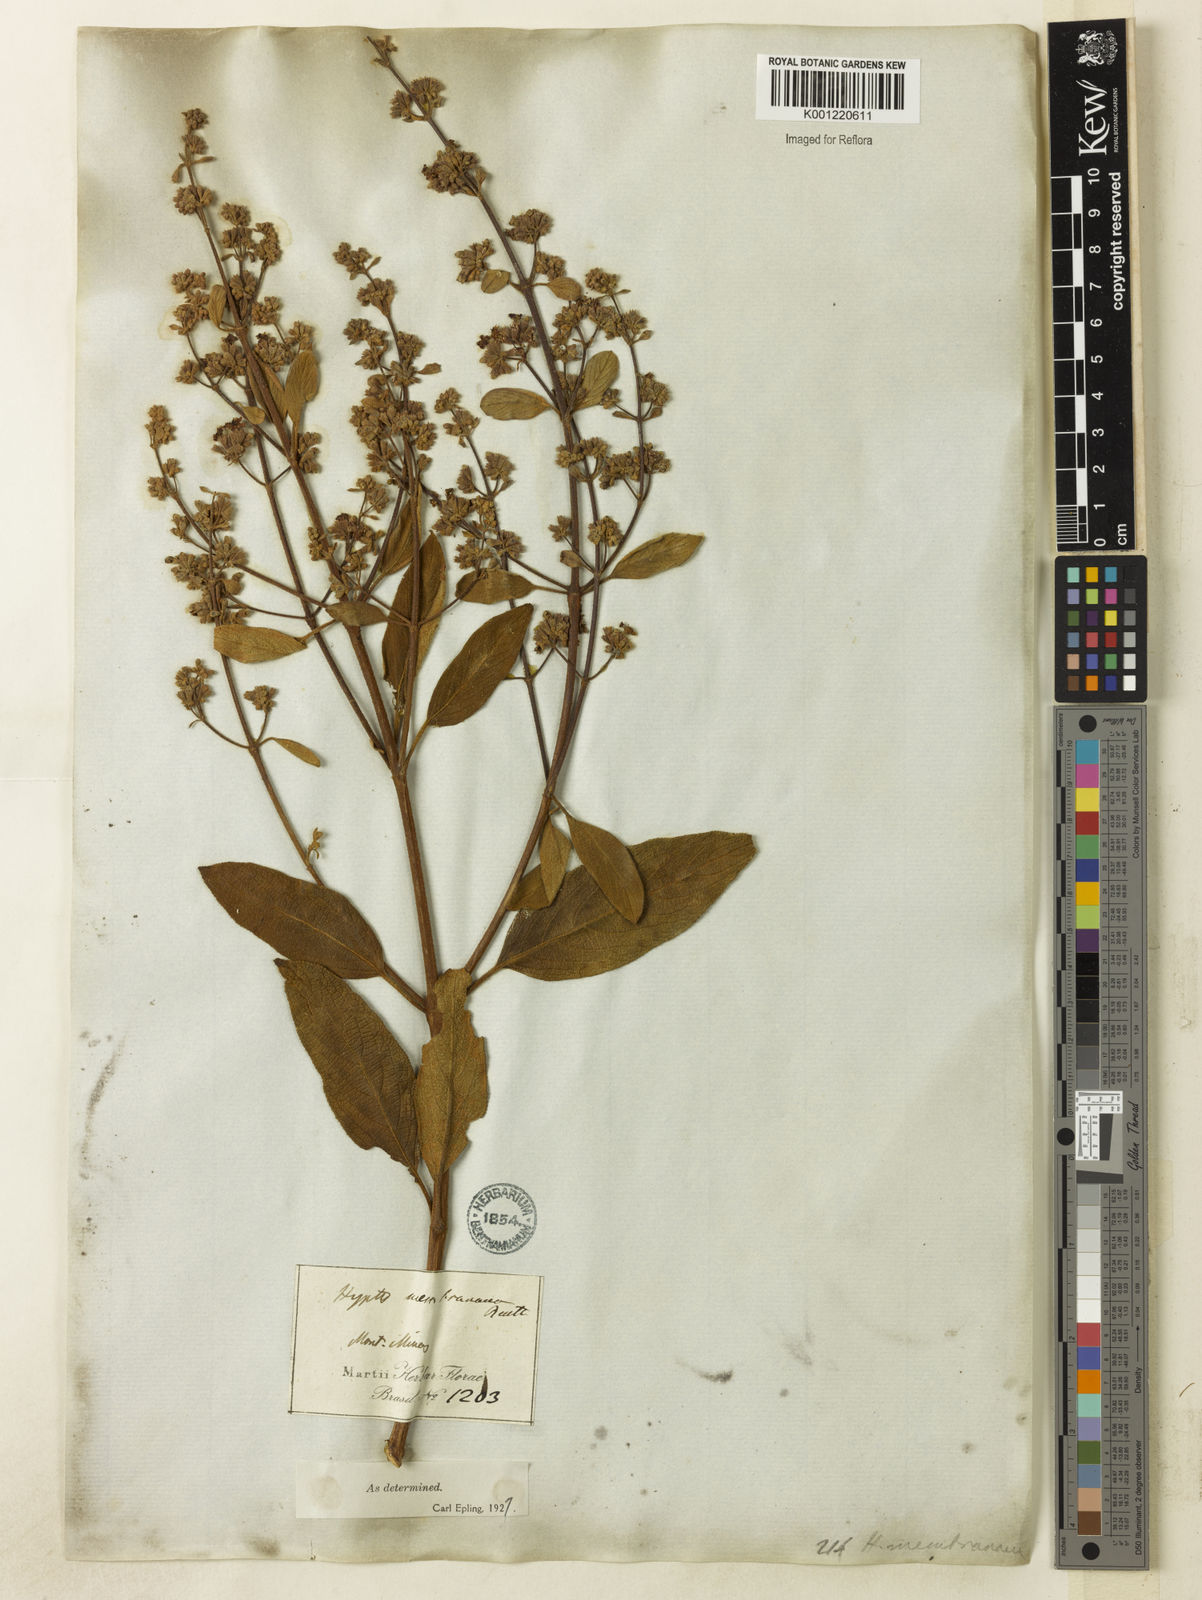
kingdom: Plantae
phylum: Tracheophyta
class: Magnoliopsida
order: Lamiales
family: Lamiaceae
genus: Hyptidendron
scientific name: Hyptidendron asperrimum
